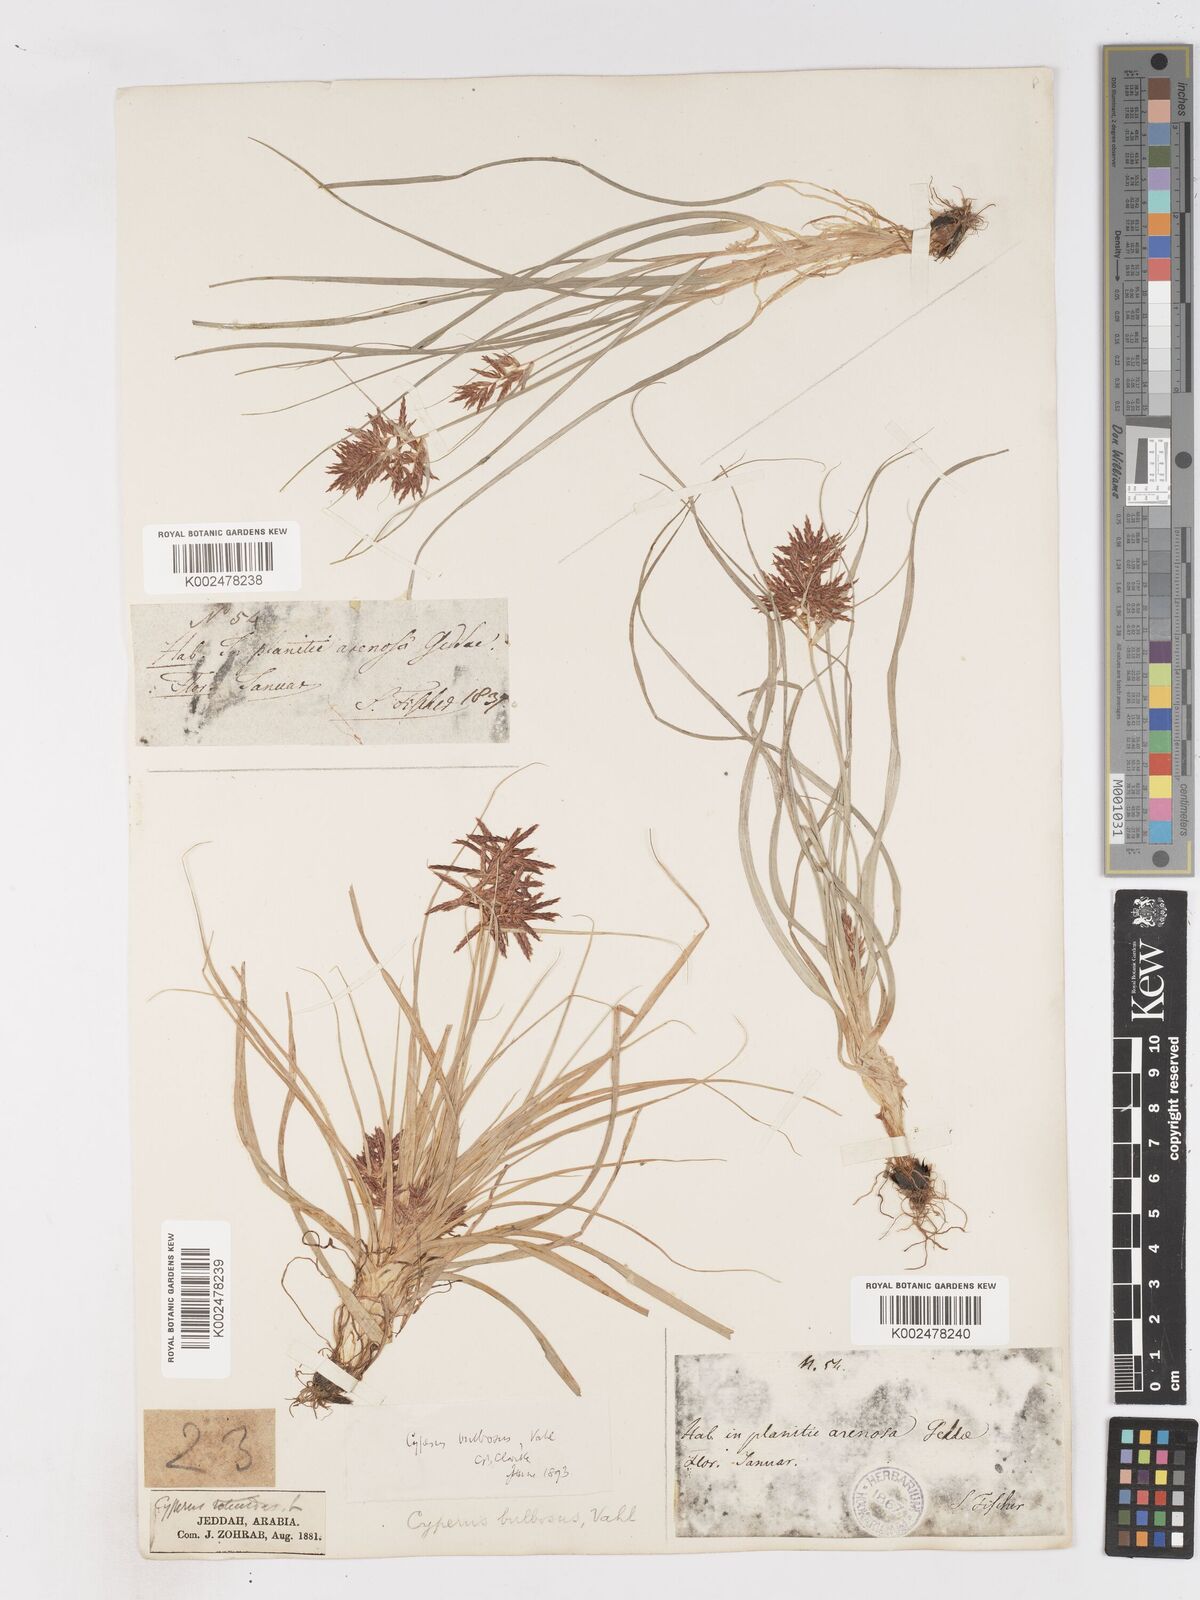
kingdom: Plantae
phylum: Tracheophyta
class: Liliopsida
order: Poales
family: Cyperaceae
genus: Cyperus
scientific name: Cyperus bulbosus
